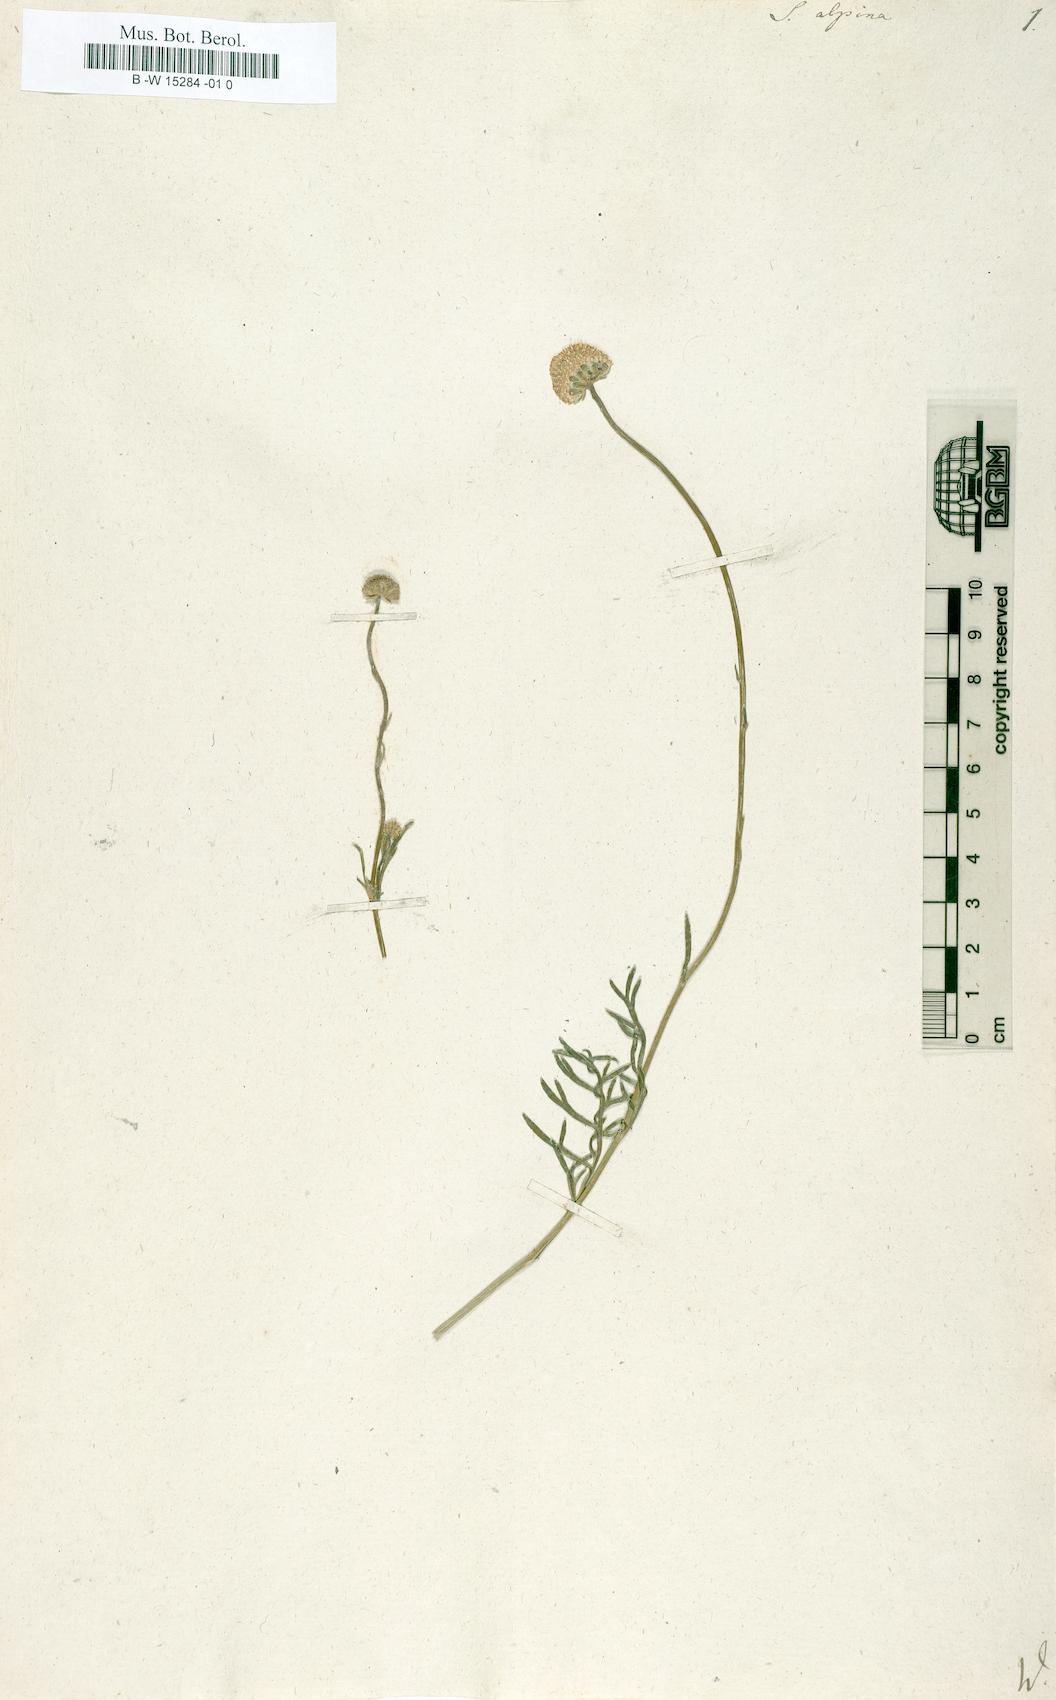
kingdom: Plantae
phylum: Tracheophyta
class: Magnoliopsida
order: Asterales
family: Asteraceae
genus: Santolina
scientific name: Santolina alpina
